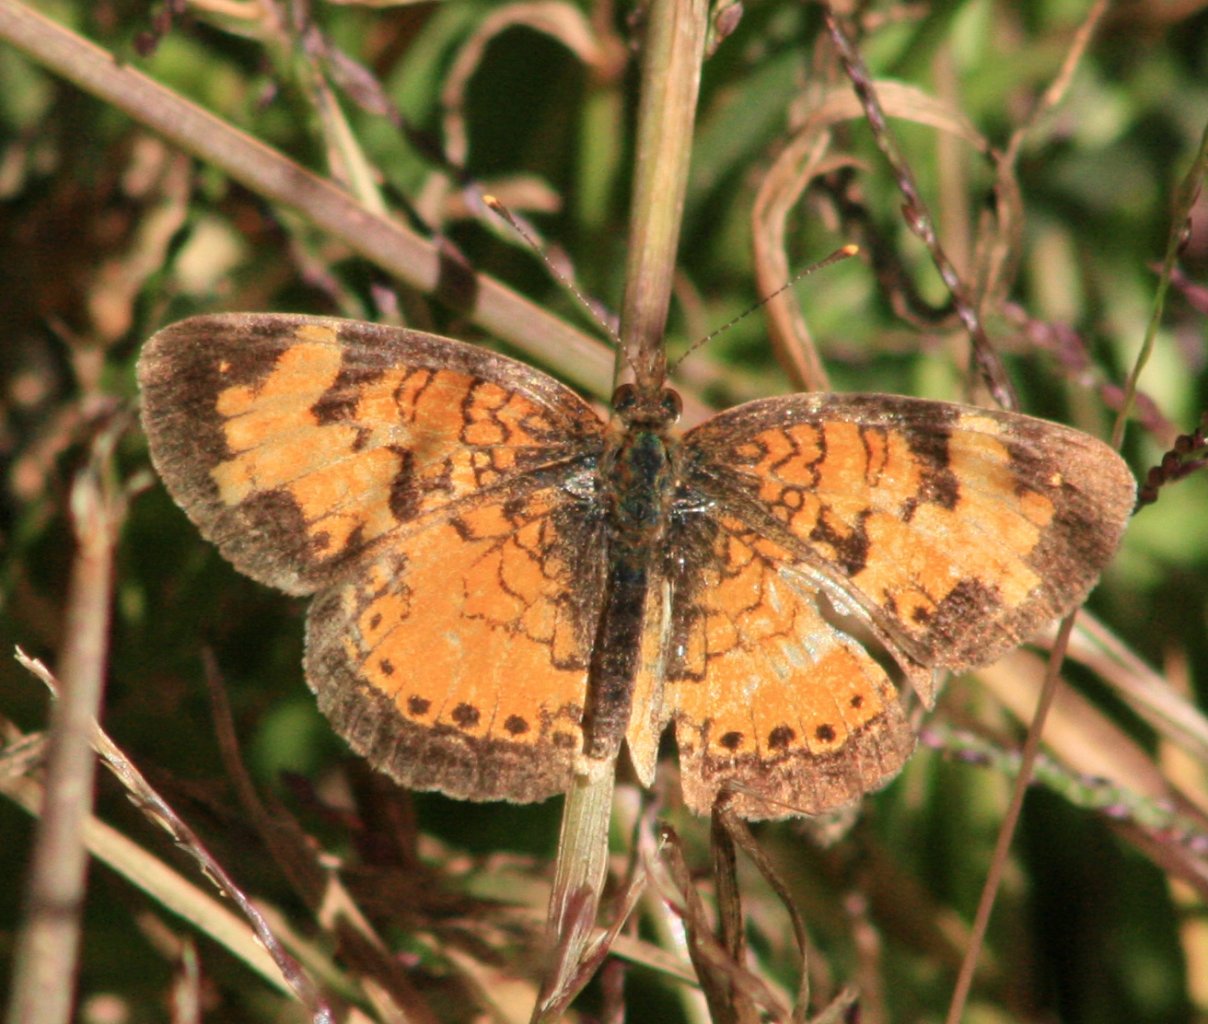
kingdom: Animalia
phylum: Arthropoda
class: Insecta
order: Lepidoptera
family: Nymphalidae
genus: Phyciodes
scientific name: Phyciodes tharos
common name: Northern Crescent
